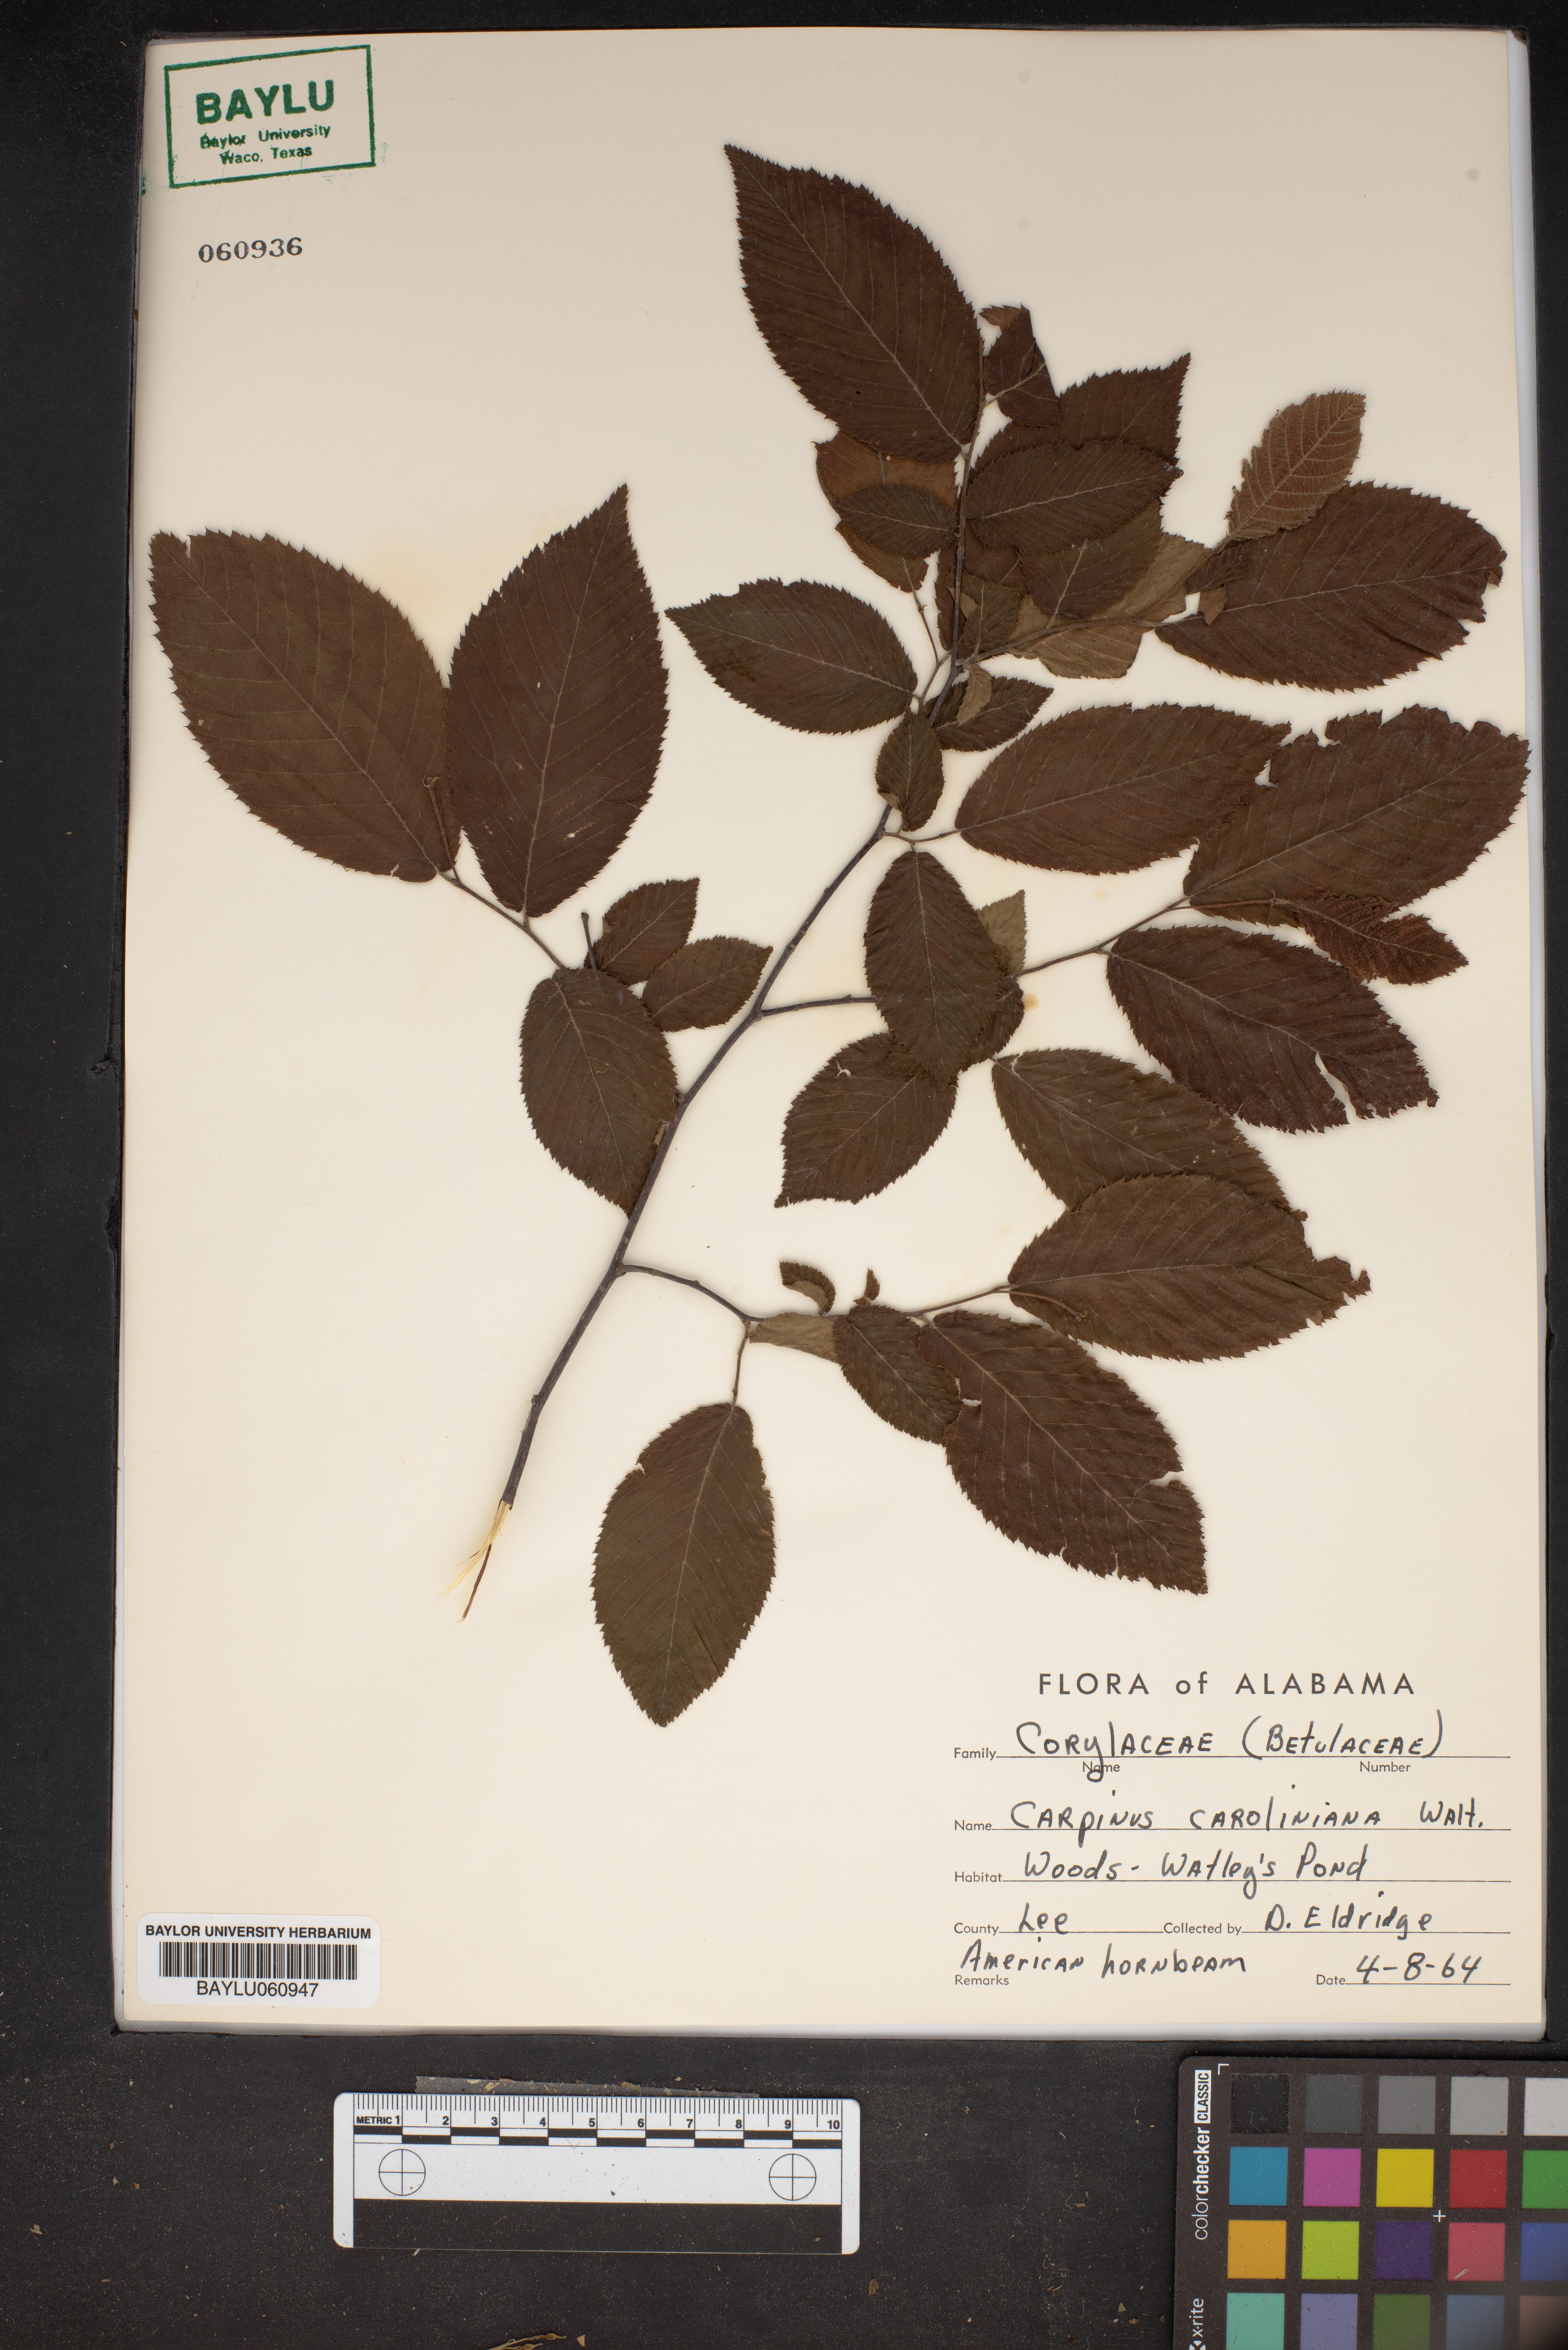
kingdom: Plantae
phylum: Tracheophyta
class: Magnoliopsida
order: Fagales
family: Betulaceae
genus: Carpinus
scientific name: Carpinus caroliniana
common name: American hornbeam
